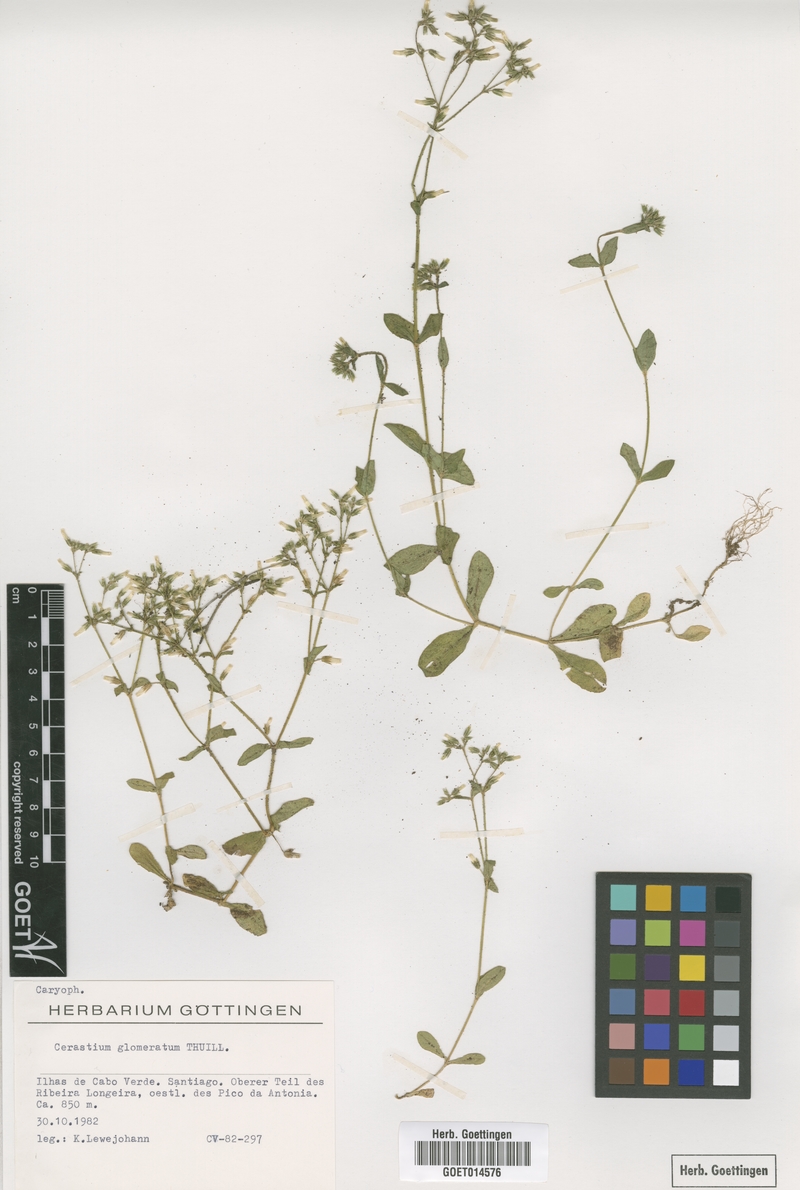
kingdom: Plantae
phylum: Tracheophyta
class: Magnoliopsida
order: Caryophyllales
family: Caryophyllaceae
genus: Cerastium
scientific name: Cerastium glomeratum
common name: Sticky chickweed
